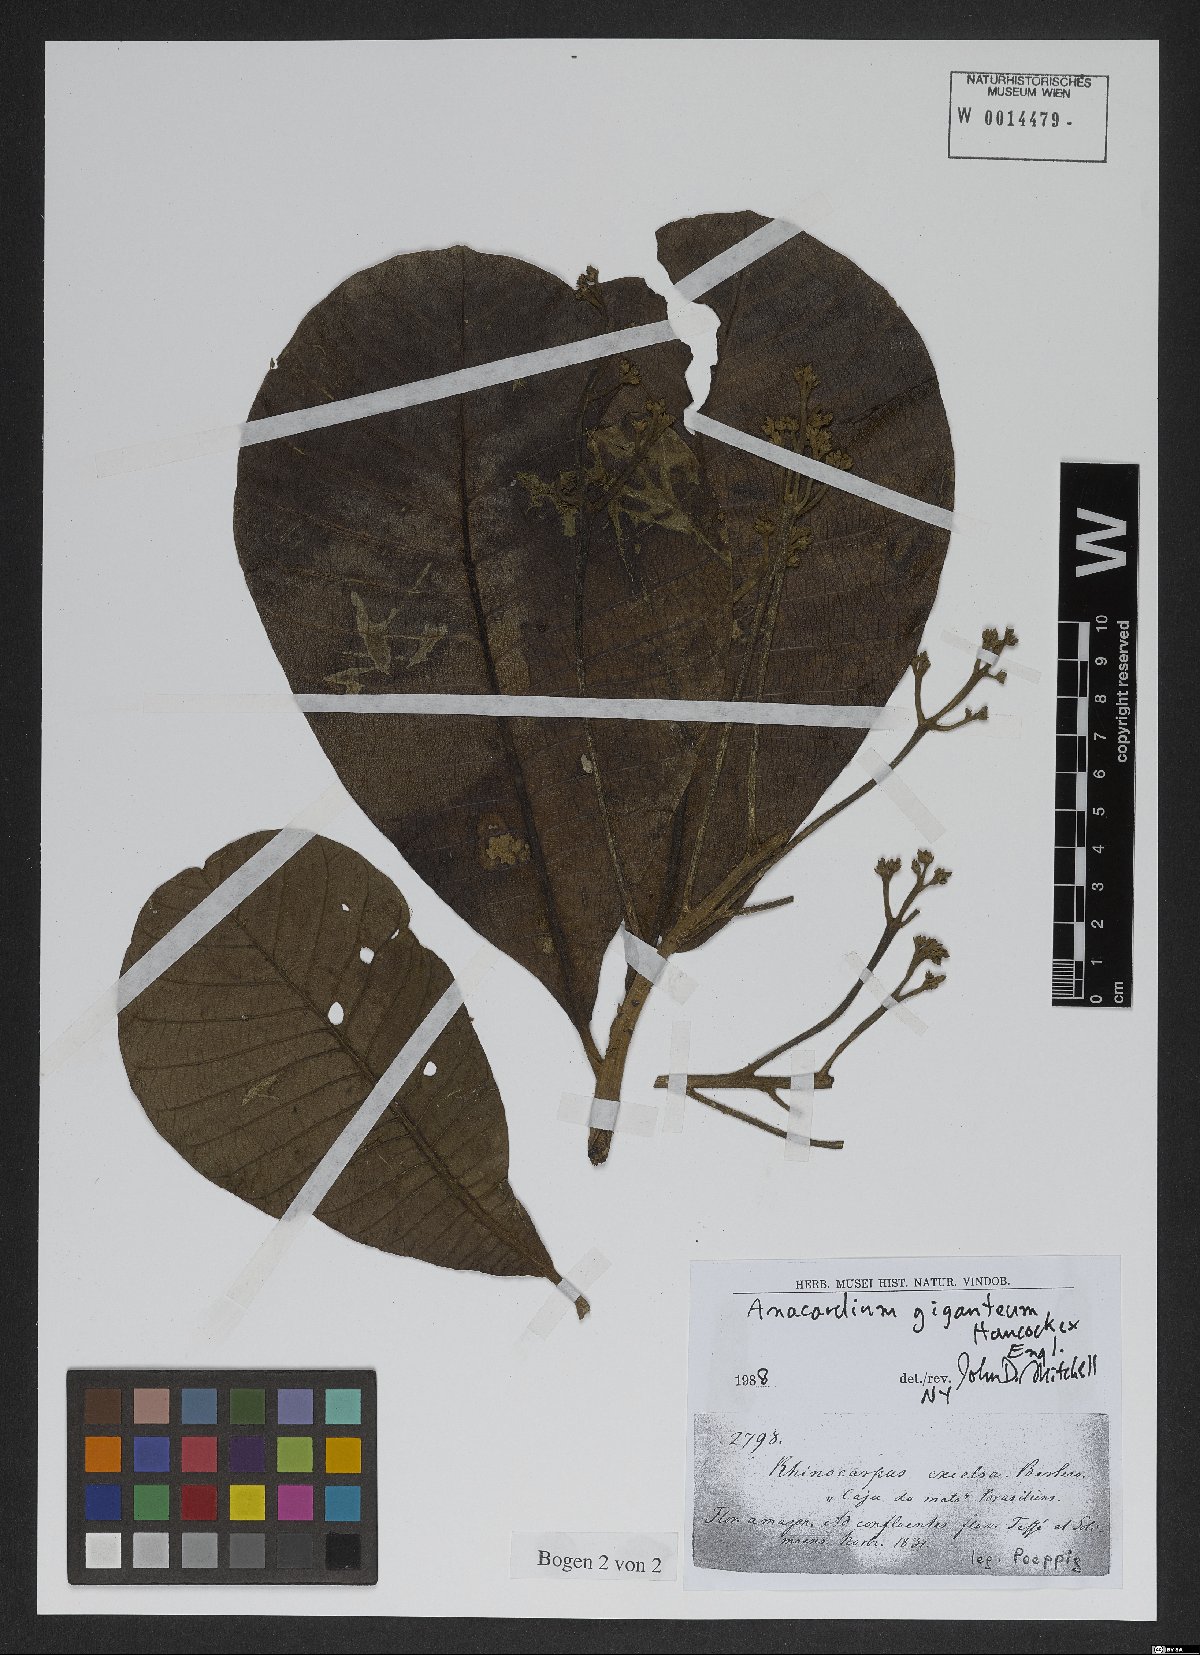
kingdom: Plantae
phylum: Tracheophyta
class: Magnoliopsida
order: Sapindales
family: Anacardiaceae
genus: Anacardium
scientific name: Anacardium giganteum
